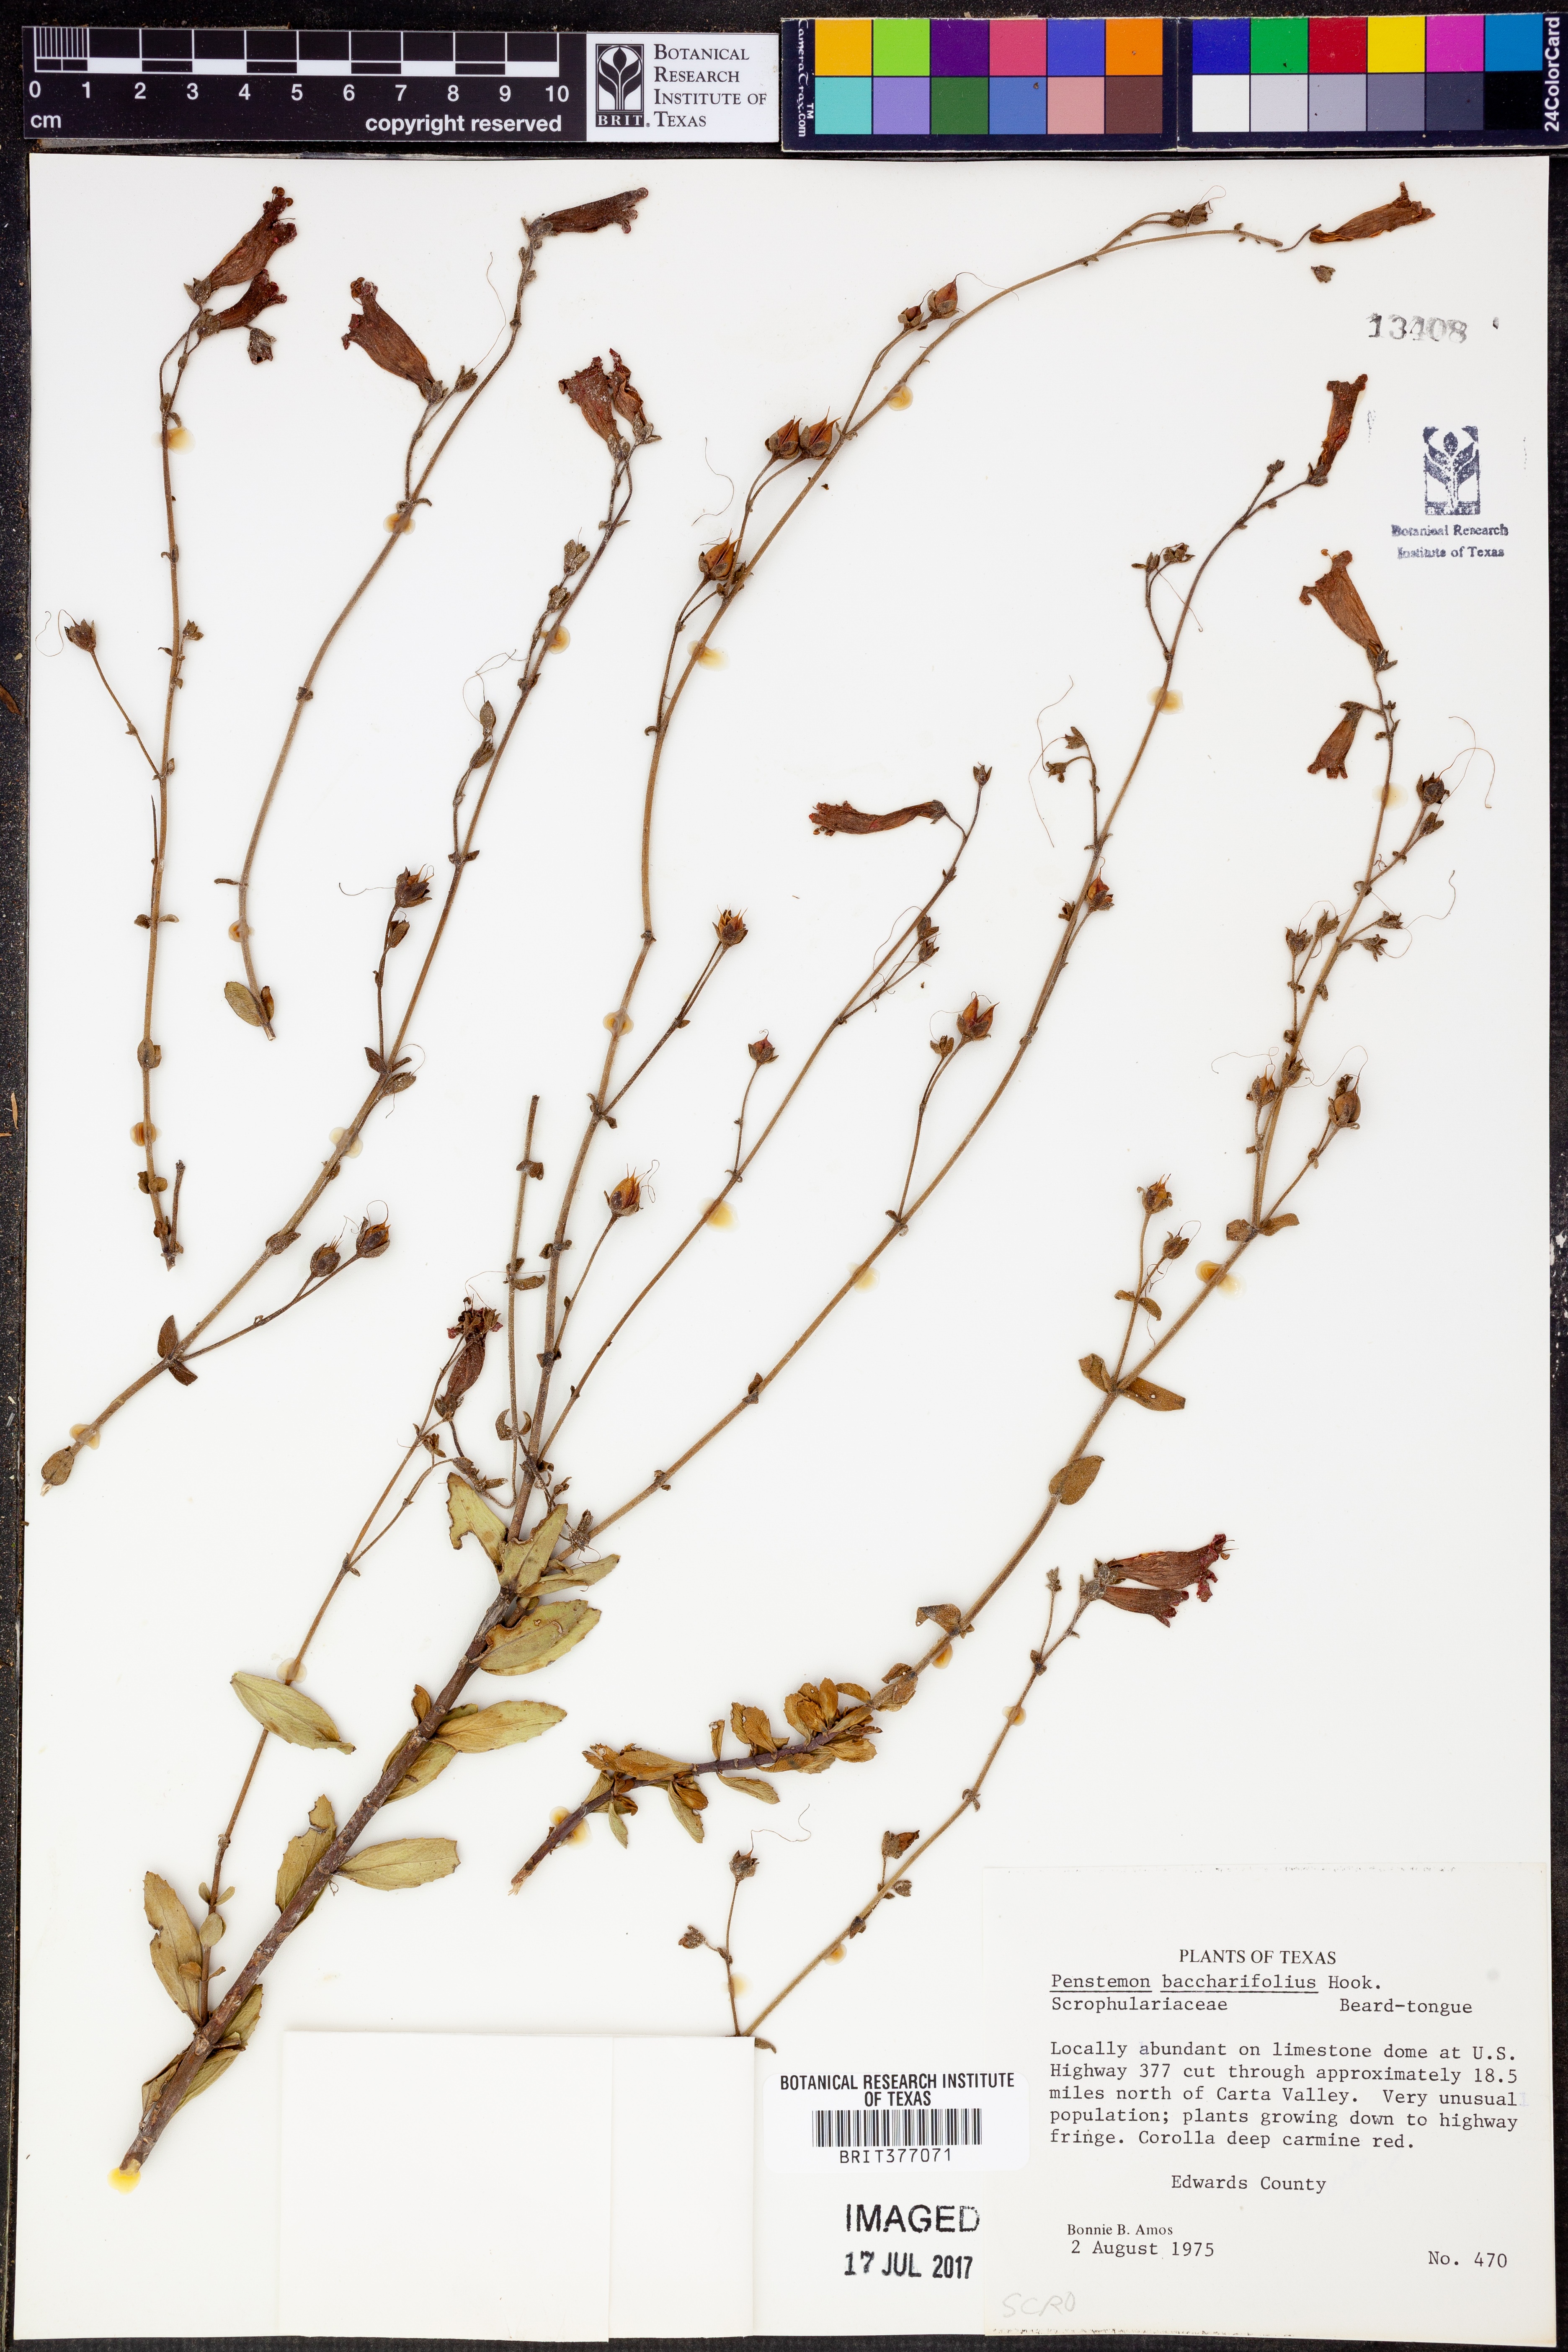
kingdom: Plantae
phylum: Tracheophyta
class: Magnoliopsida
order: Lamiales
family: Plantaginaceae
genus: Penstemon
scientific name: Penstemon baccharifolius
